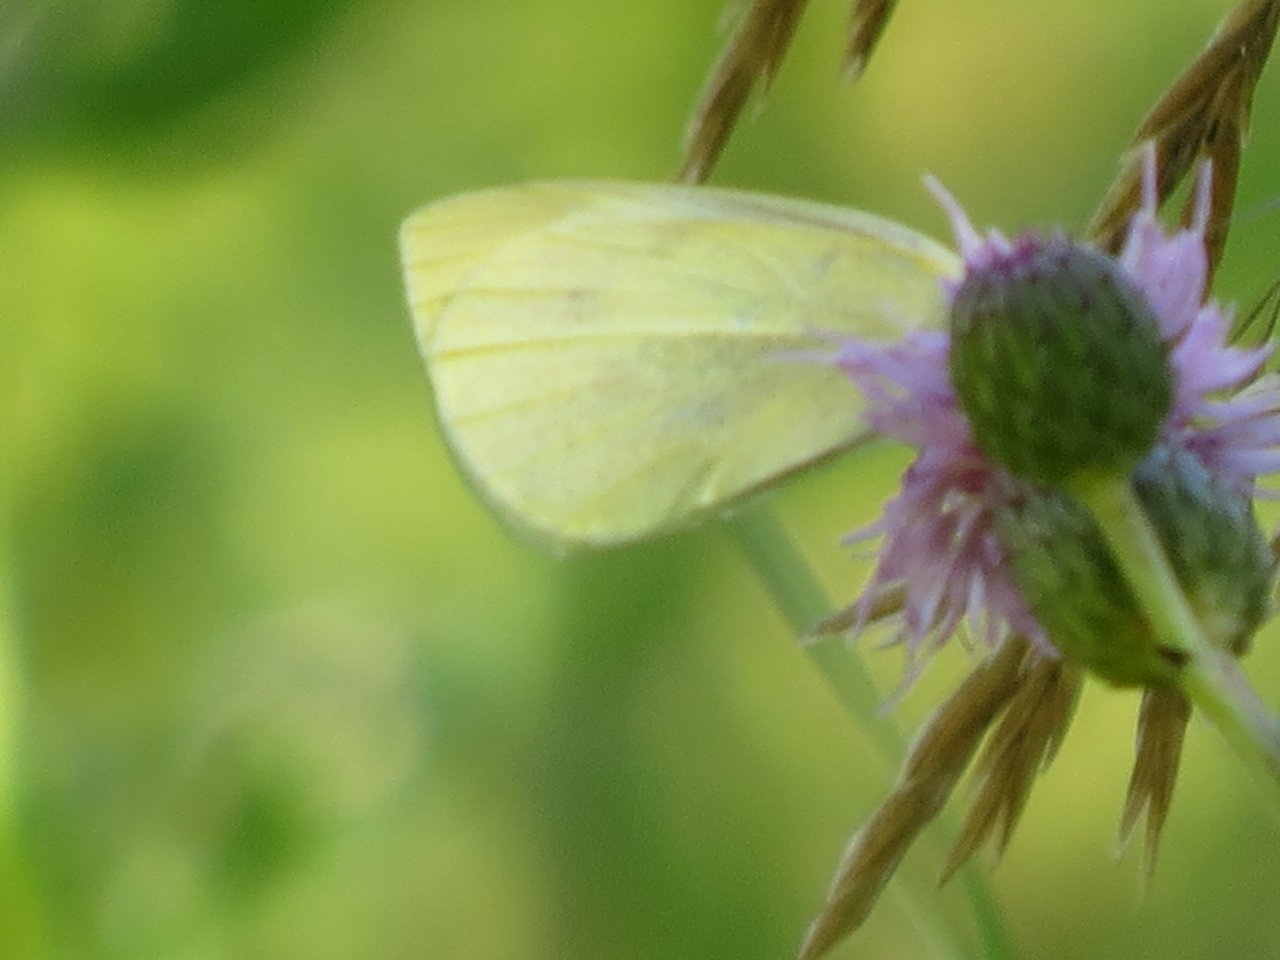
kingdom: Animalia
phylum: Arthropoda
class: Insecta
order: Lepidoptera
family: Pieridae
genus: Pieris
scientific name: Pieris rapae
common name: Cabbage White
